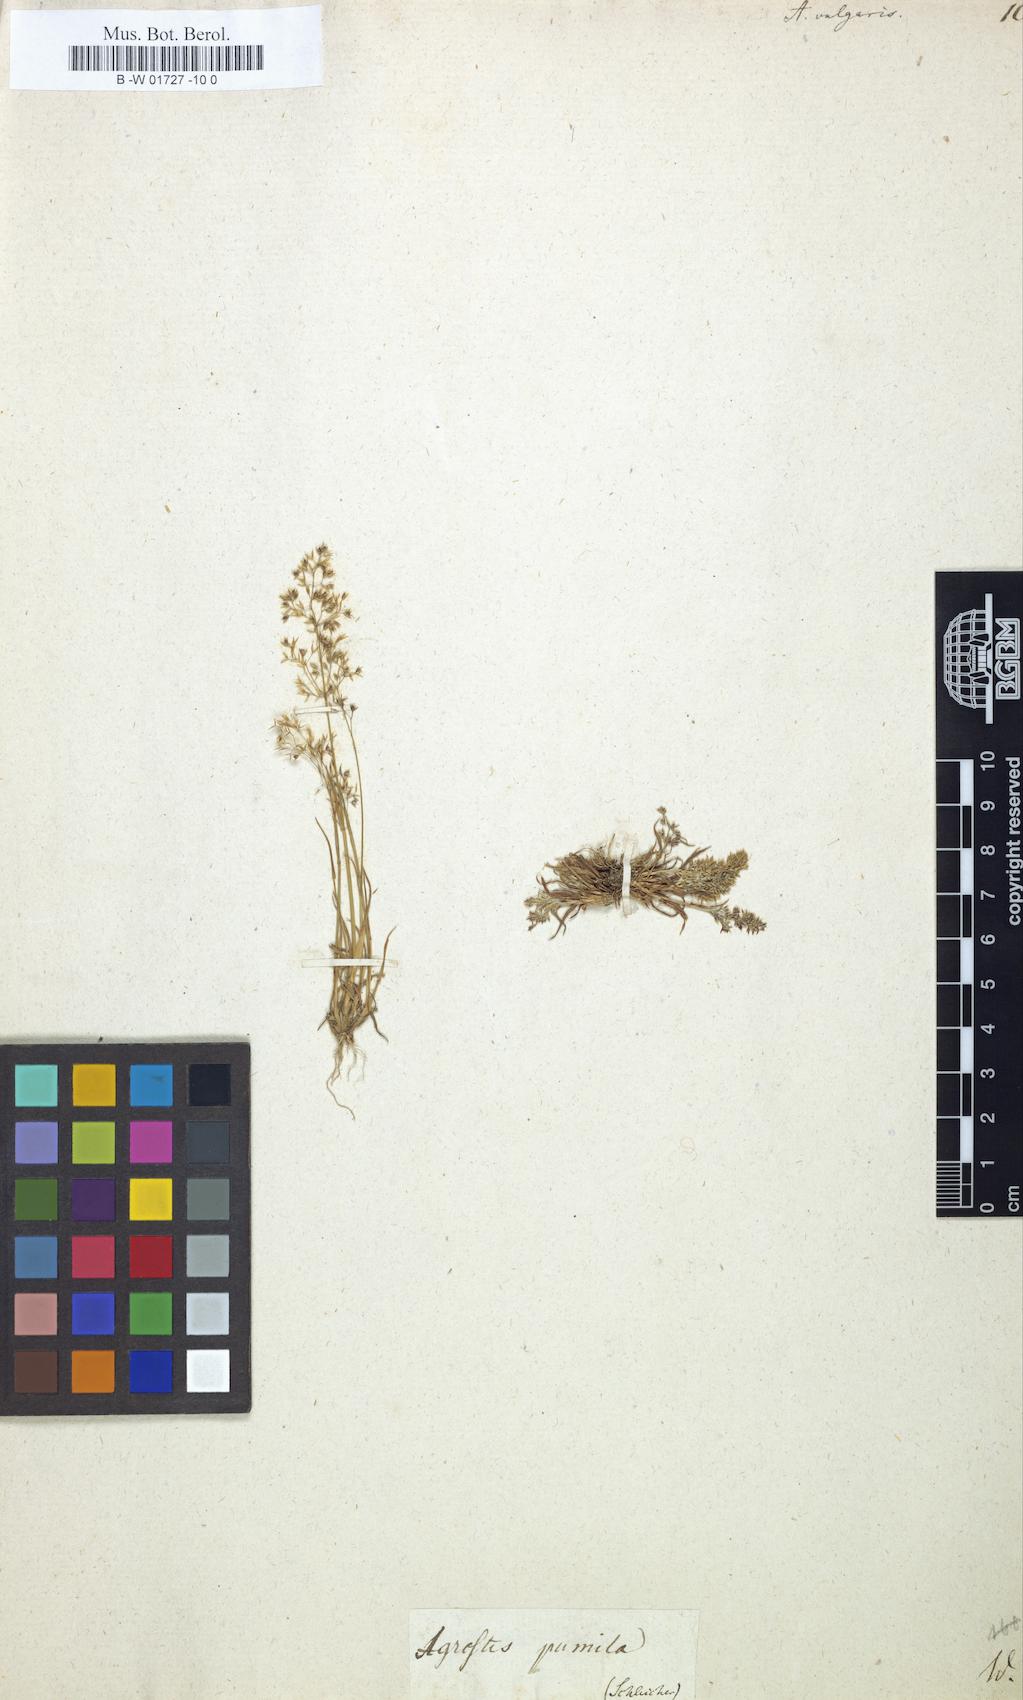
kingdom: Plantae
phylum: Tracheophyta
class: Liliopsida
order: Poales
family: Poaceae
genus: Agrostis
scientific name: Agrostis capillaris
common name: Colonial bentgrass
